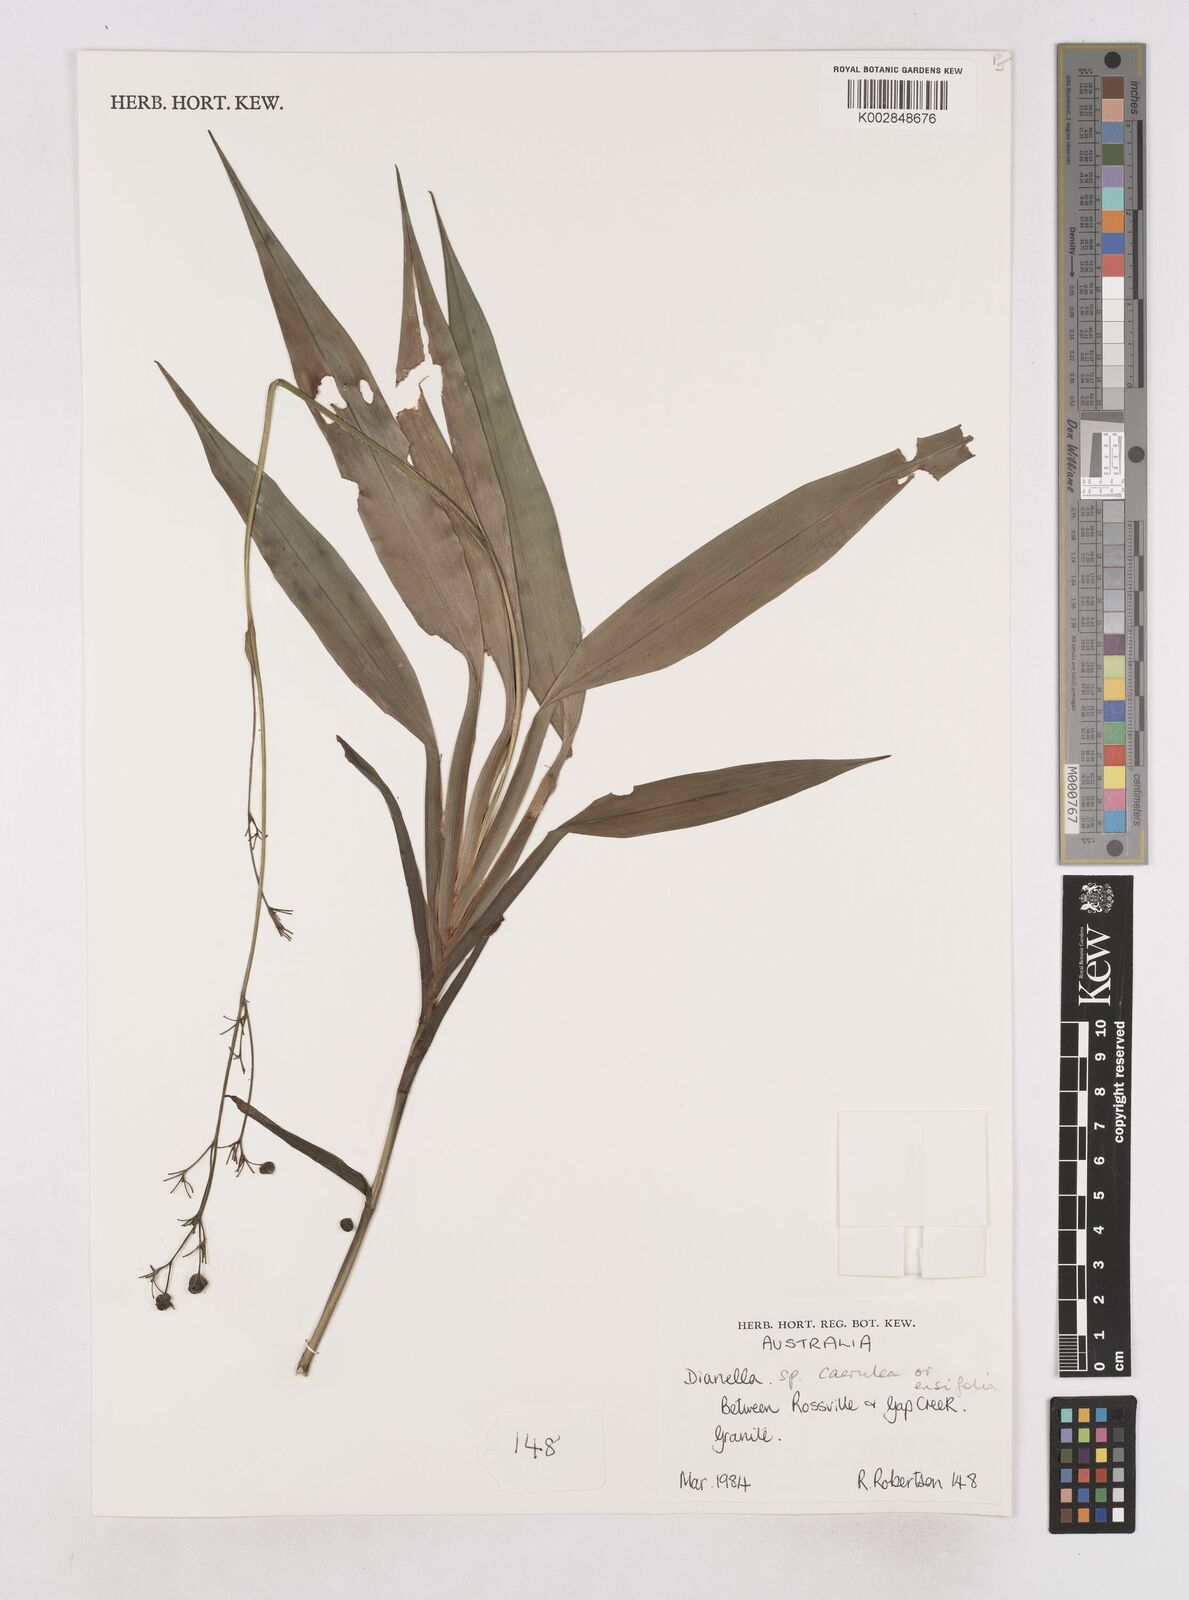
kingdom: Plantae
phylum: Tracheophyta
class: Liliopsida
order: Asparagales
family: Asphodelaceae
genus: Dianella
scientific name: Dianella caerulea
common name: Blue flax-lily
